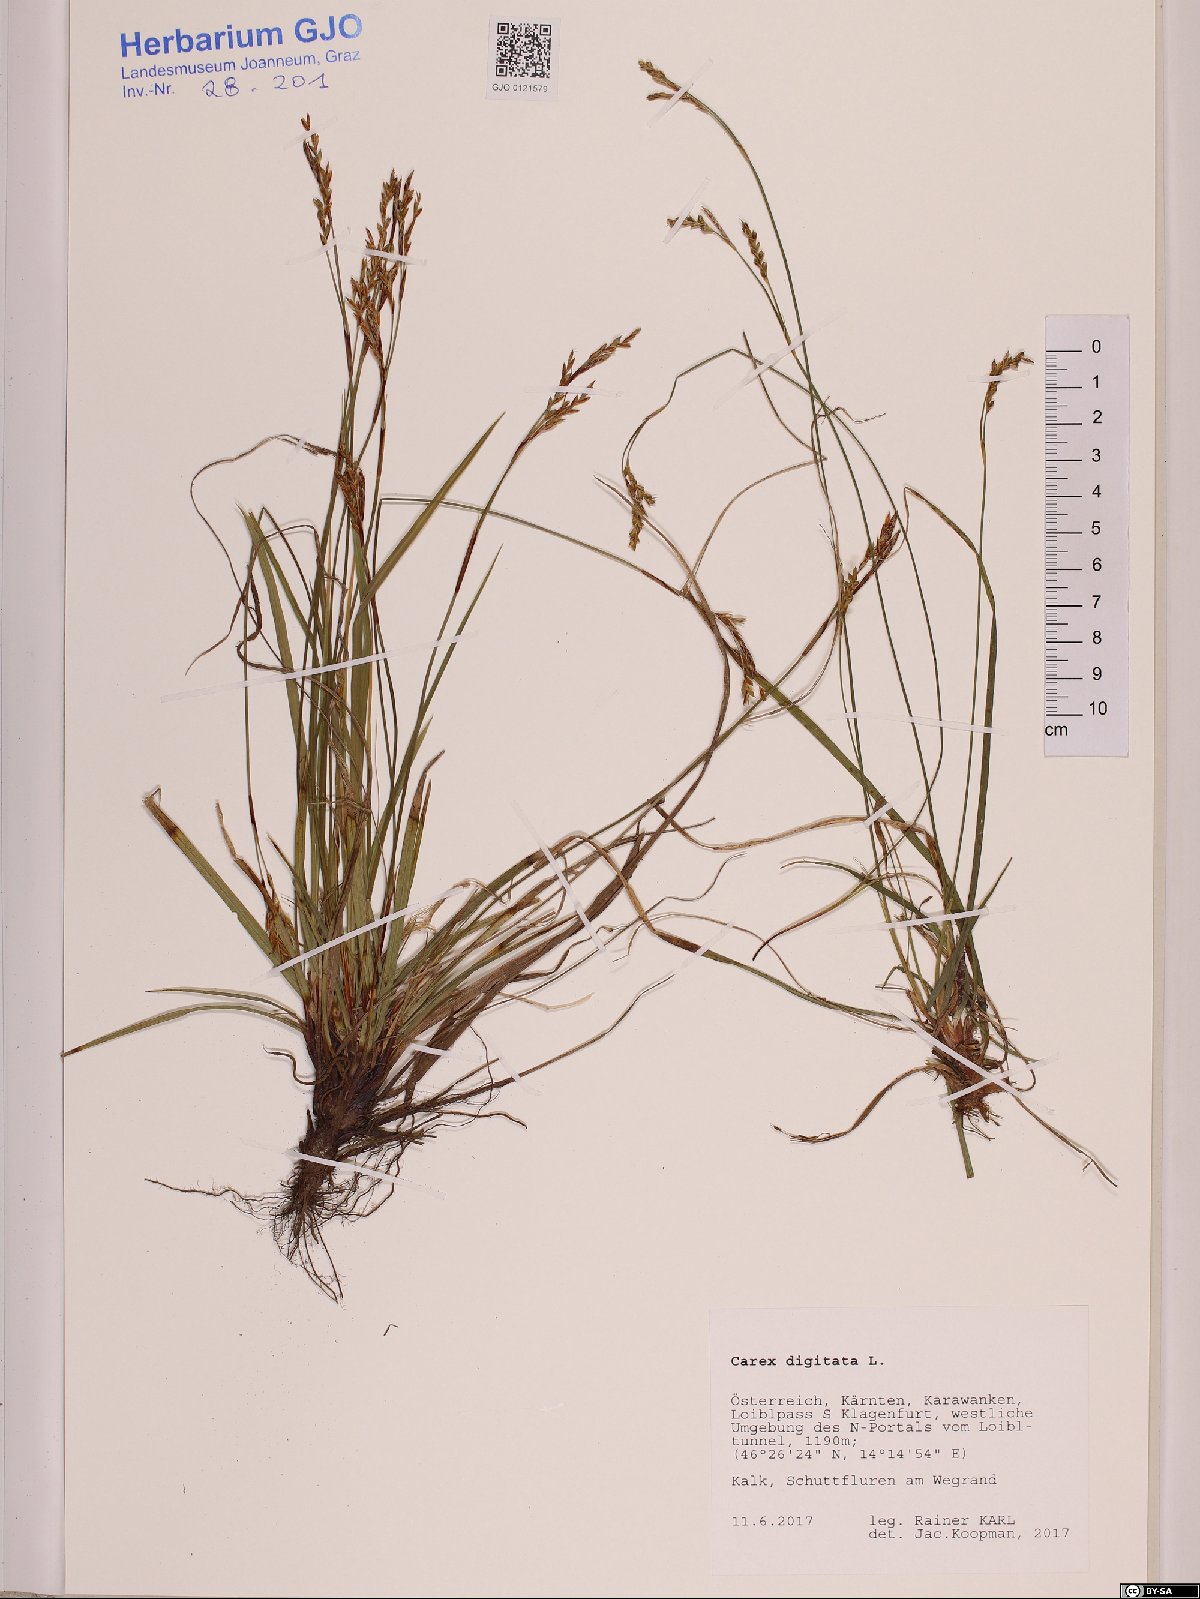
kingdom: Plantae
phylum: Tracheophyta
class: Liliopsida
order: Poales
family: Cyperaceae
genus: Carex
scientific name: Carex digitata
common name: Fingered sedge
